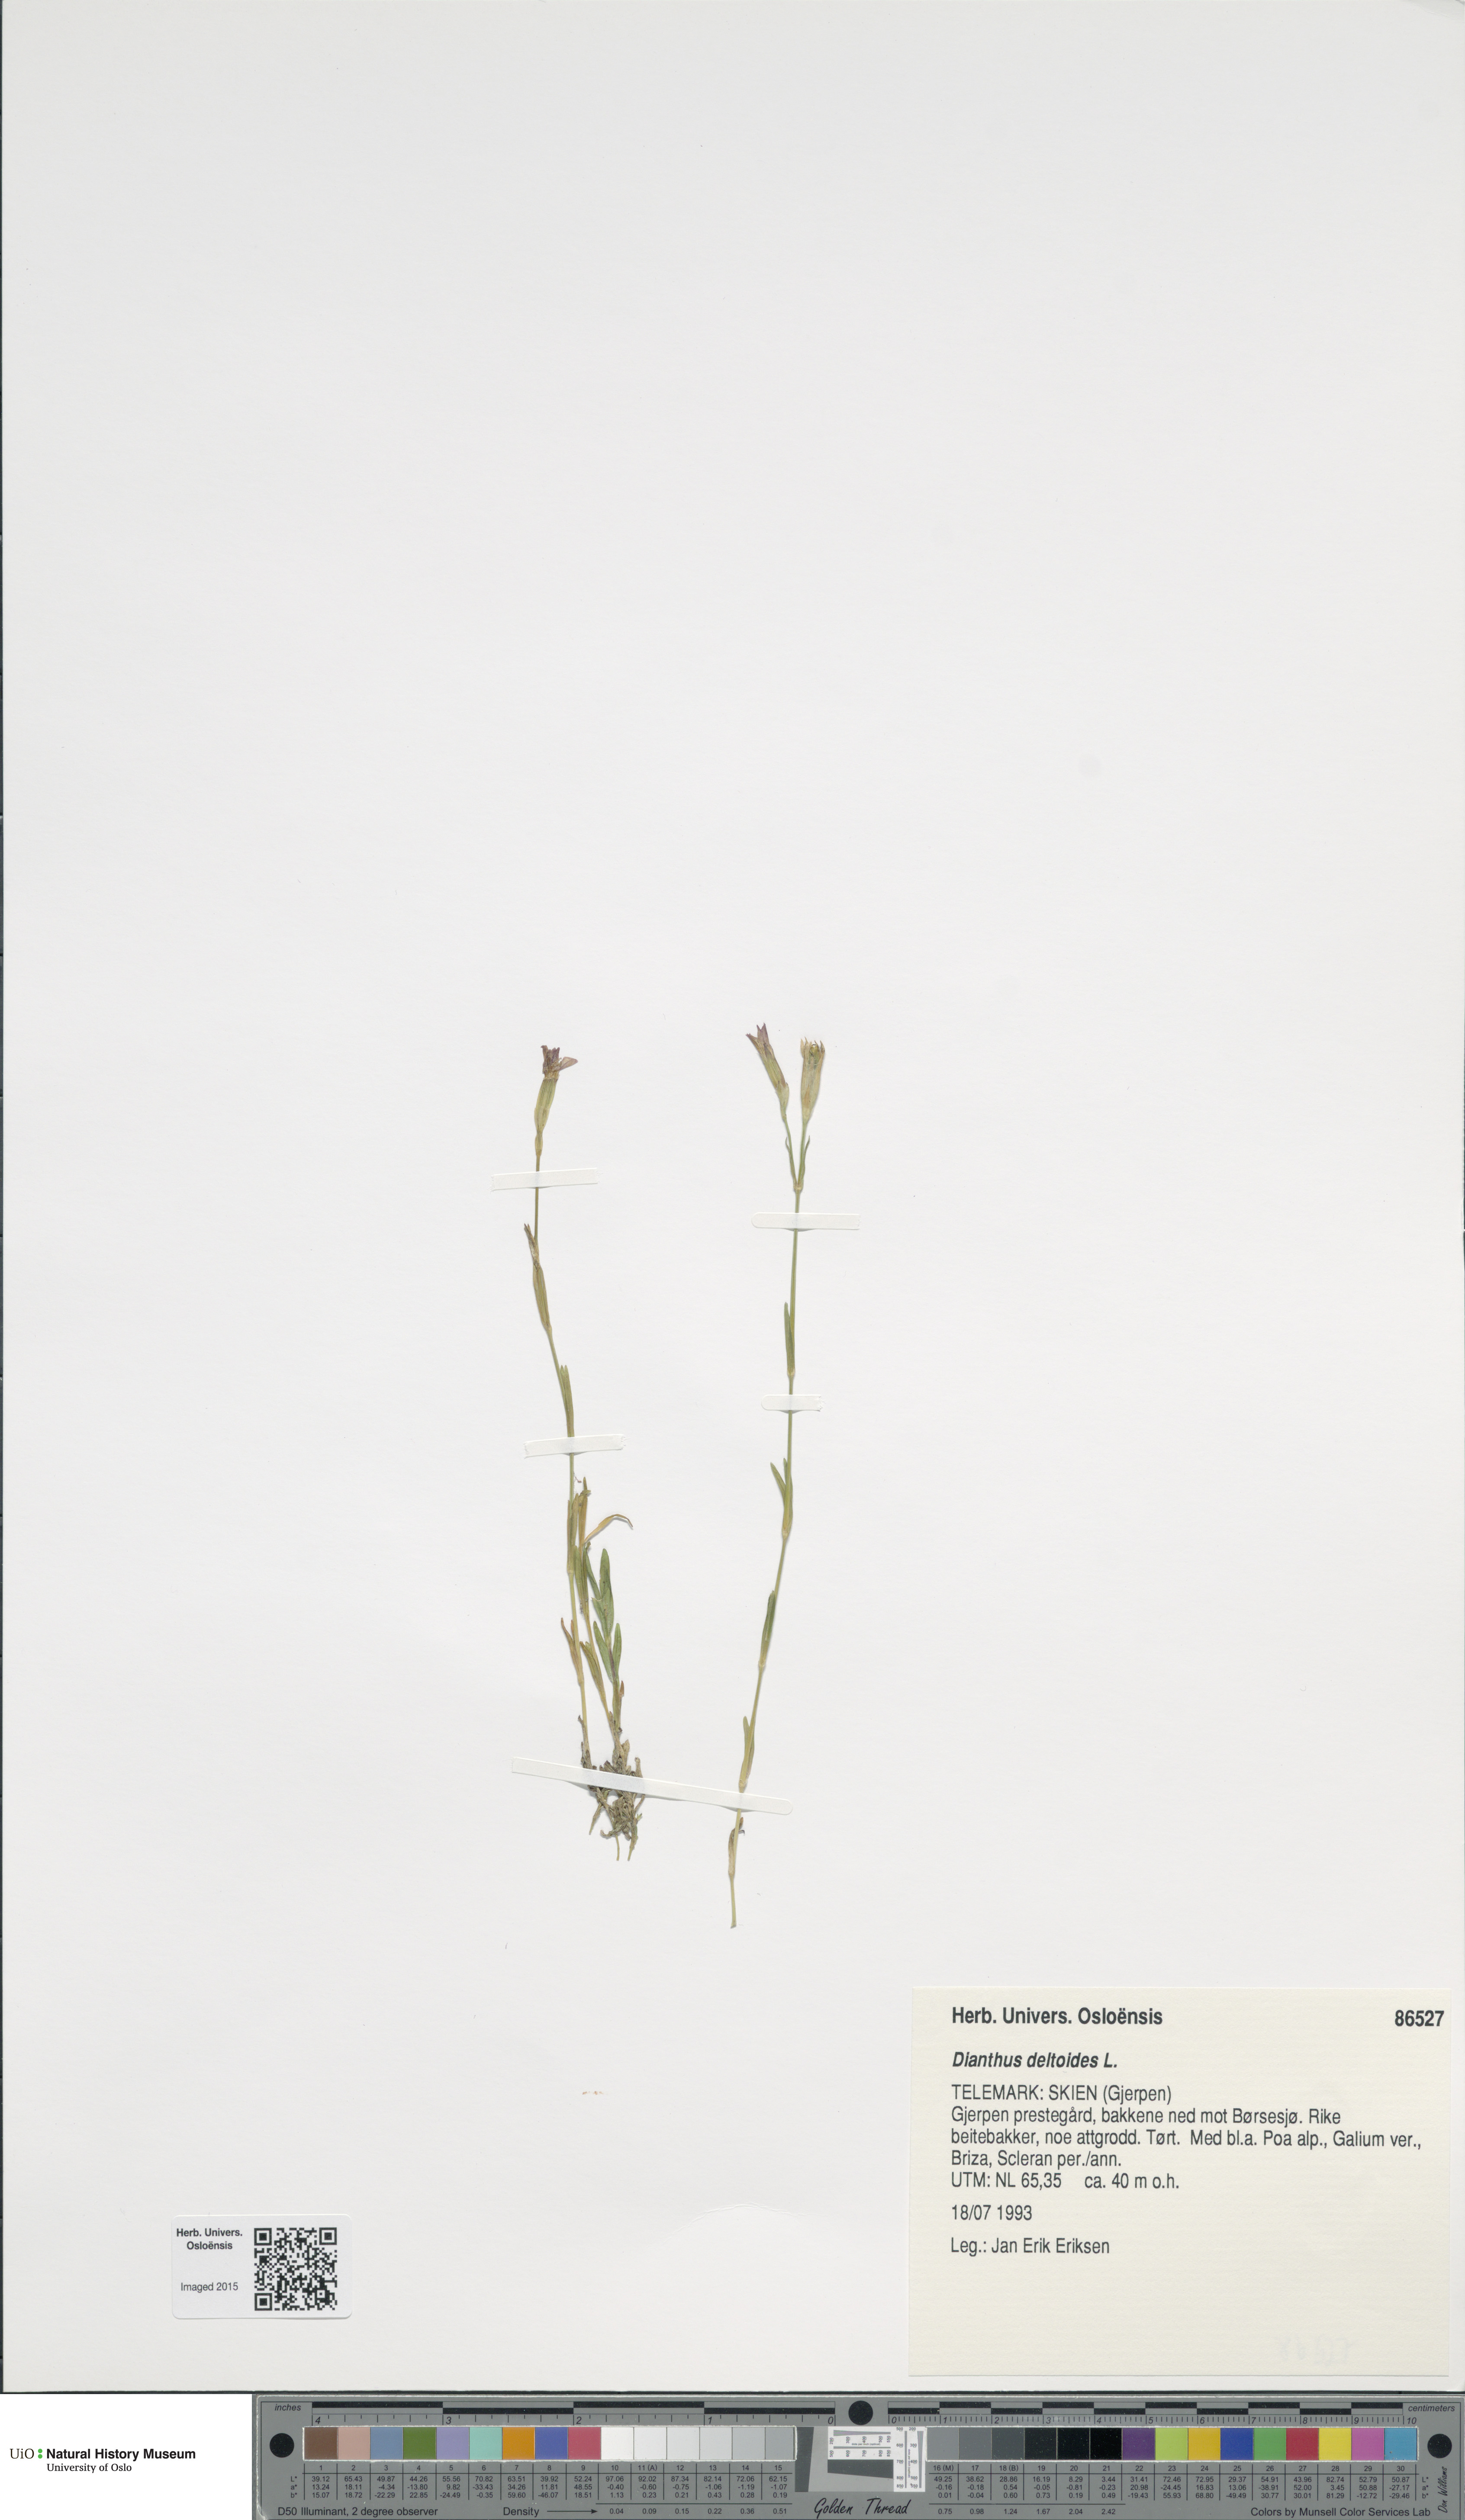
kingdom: Plantae
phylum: Tracheophyta
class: Magnoliopsida
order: Caryophyllales
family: Caryophyllaceae
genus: Dianthus
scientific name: Dianthus deltoides
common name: Maiden pink
